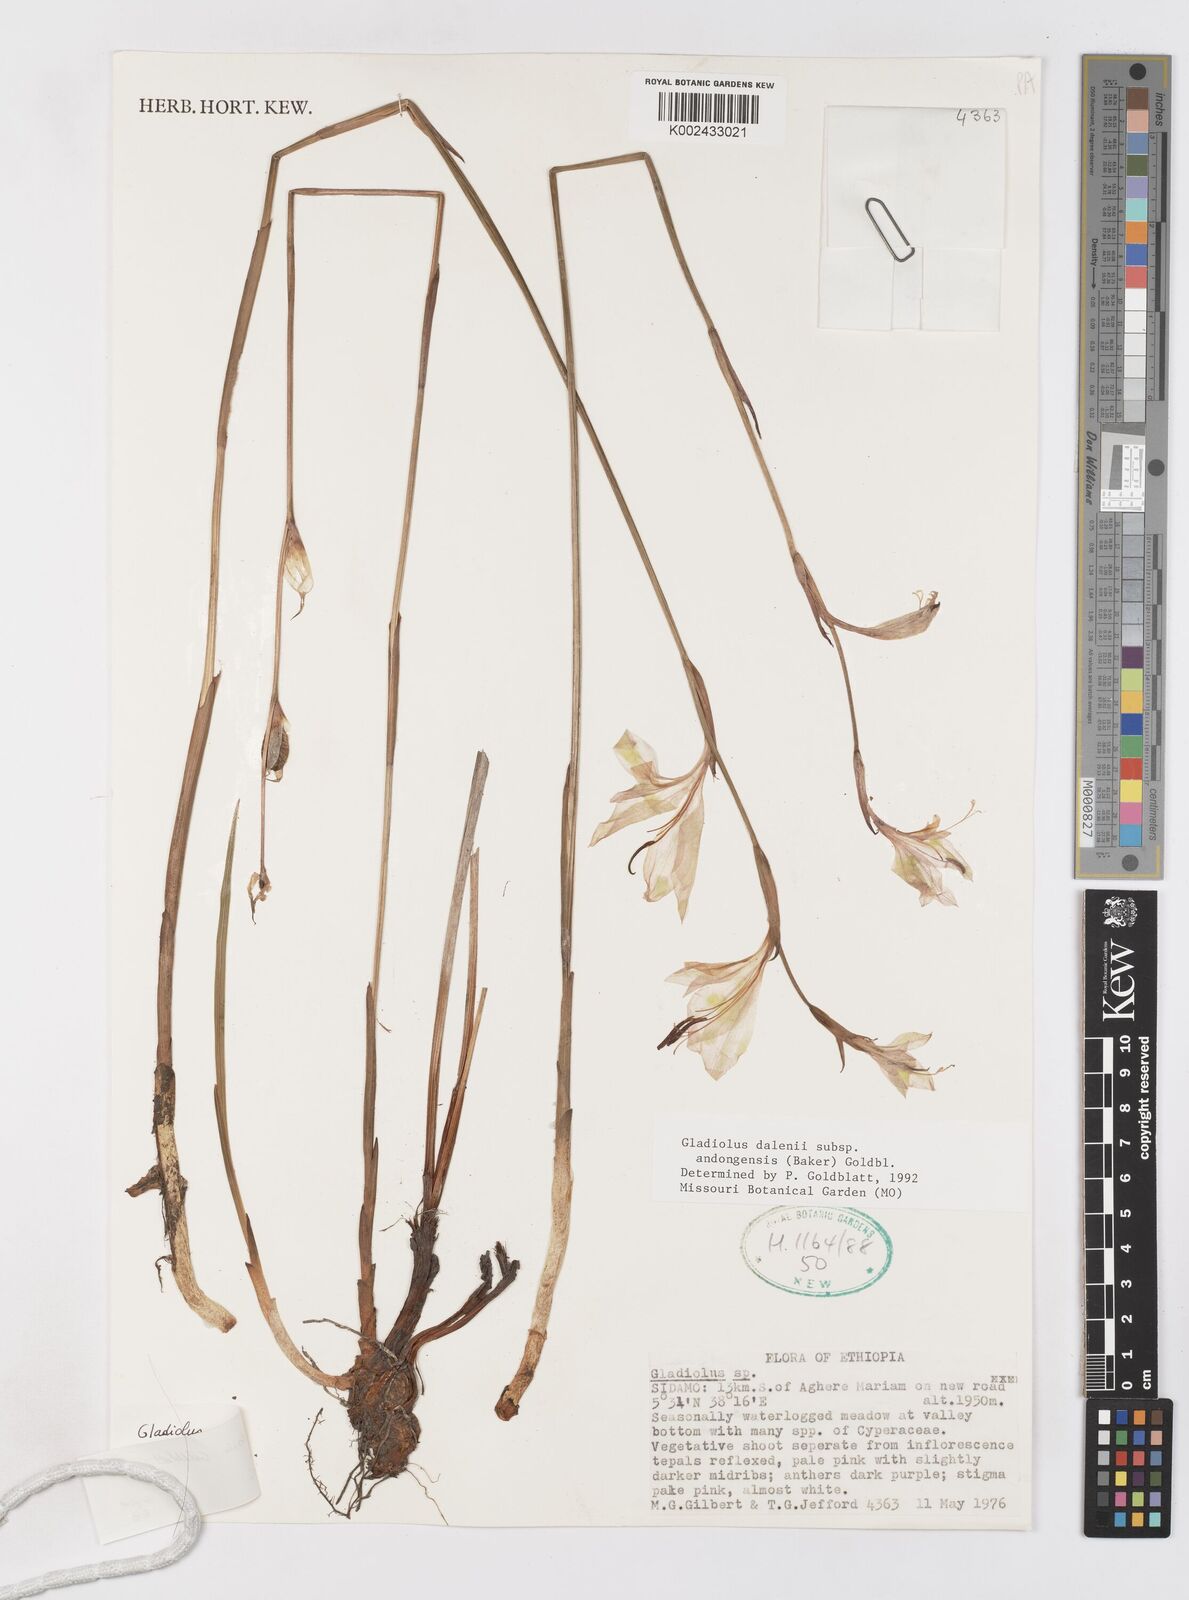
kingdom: Plantae
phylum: Tracheophyta
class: Liliopsida
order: Asparagales
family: Iridaceae
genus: Gladiolus
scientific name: Gladiolus dalenii
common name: Cornflag
